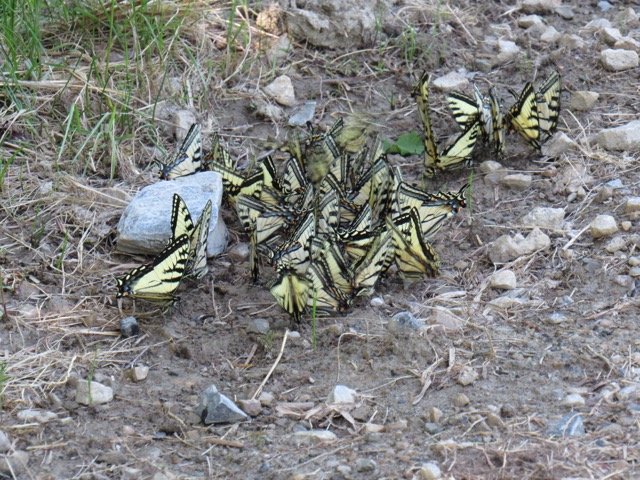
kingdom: Animalia
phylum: Arthropoda
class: Insecta
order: Lepidoptera
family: Papilionidae
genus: Pterourus
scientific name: Pterourus canadensis
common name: Canadian Tiger Swallowtail
